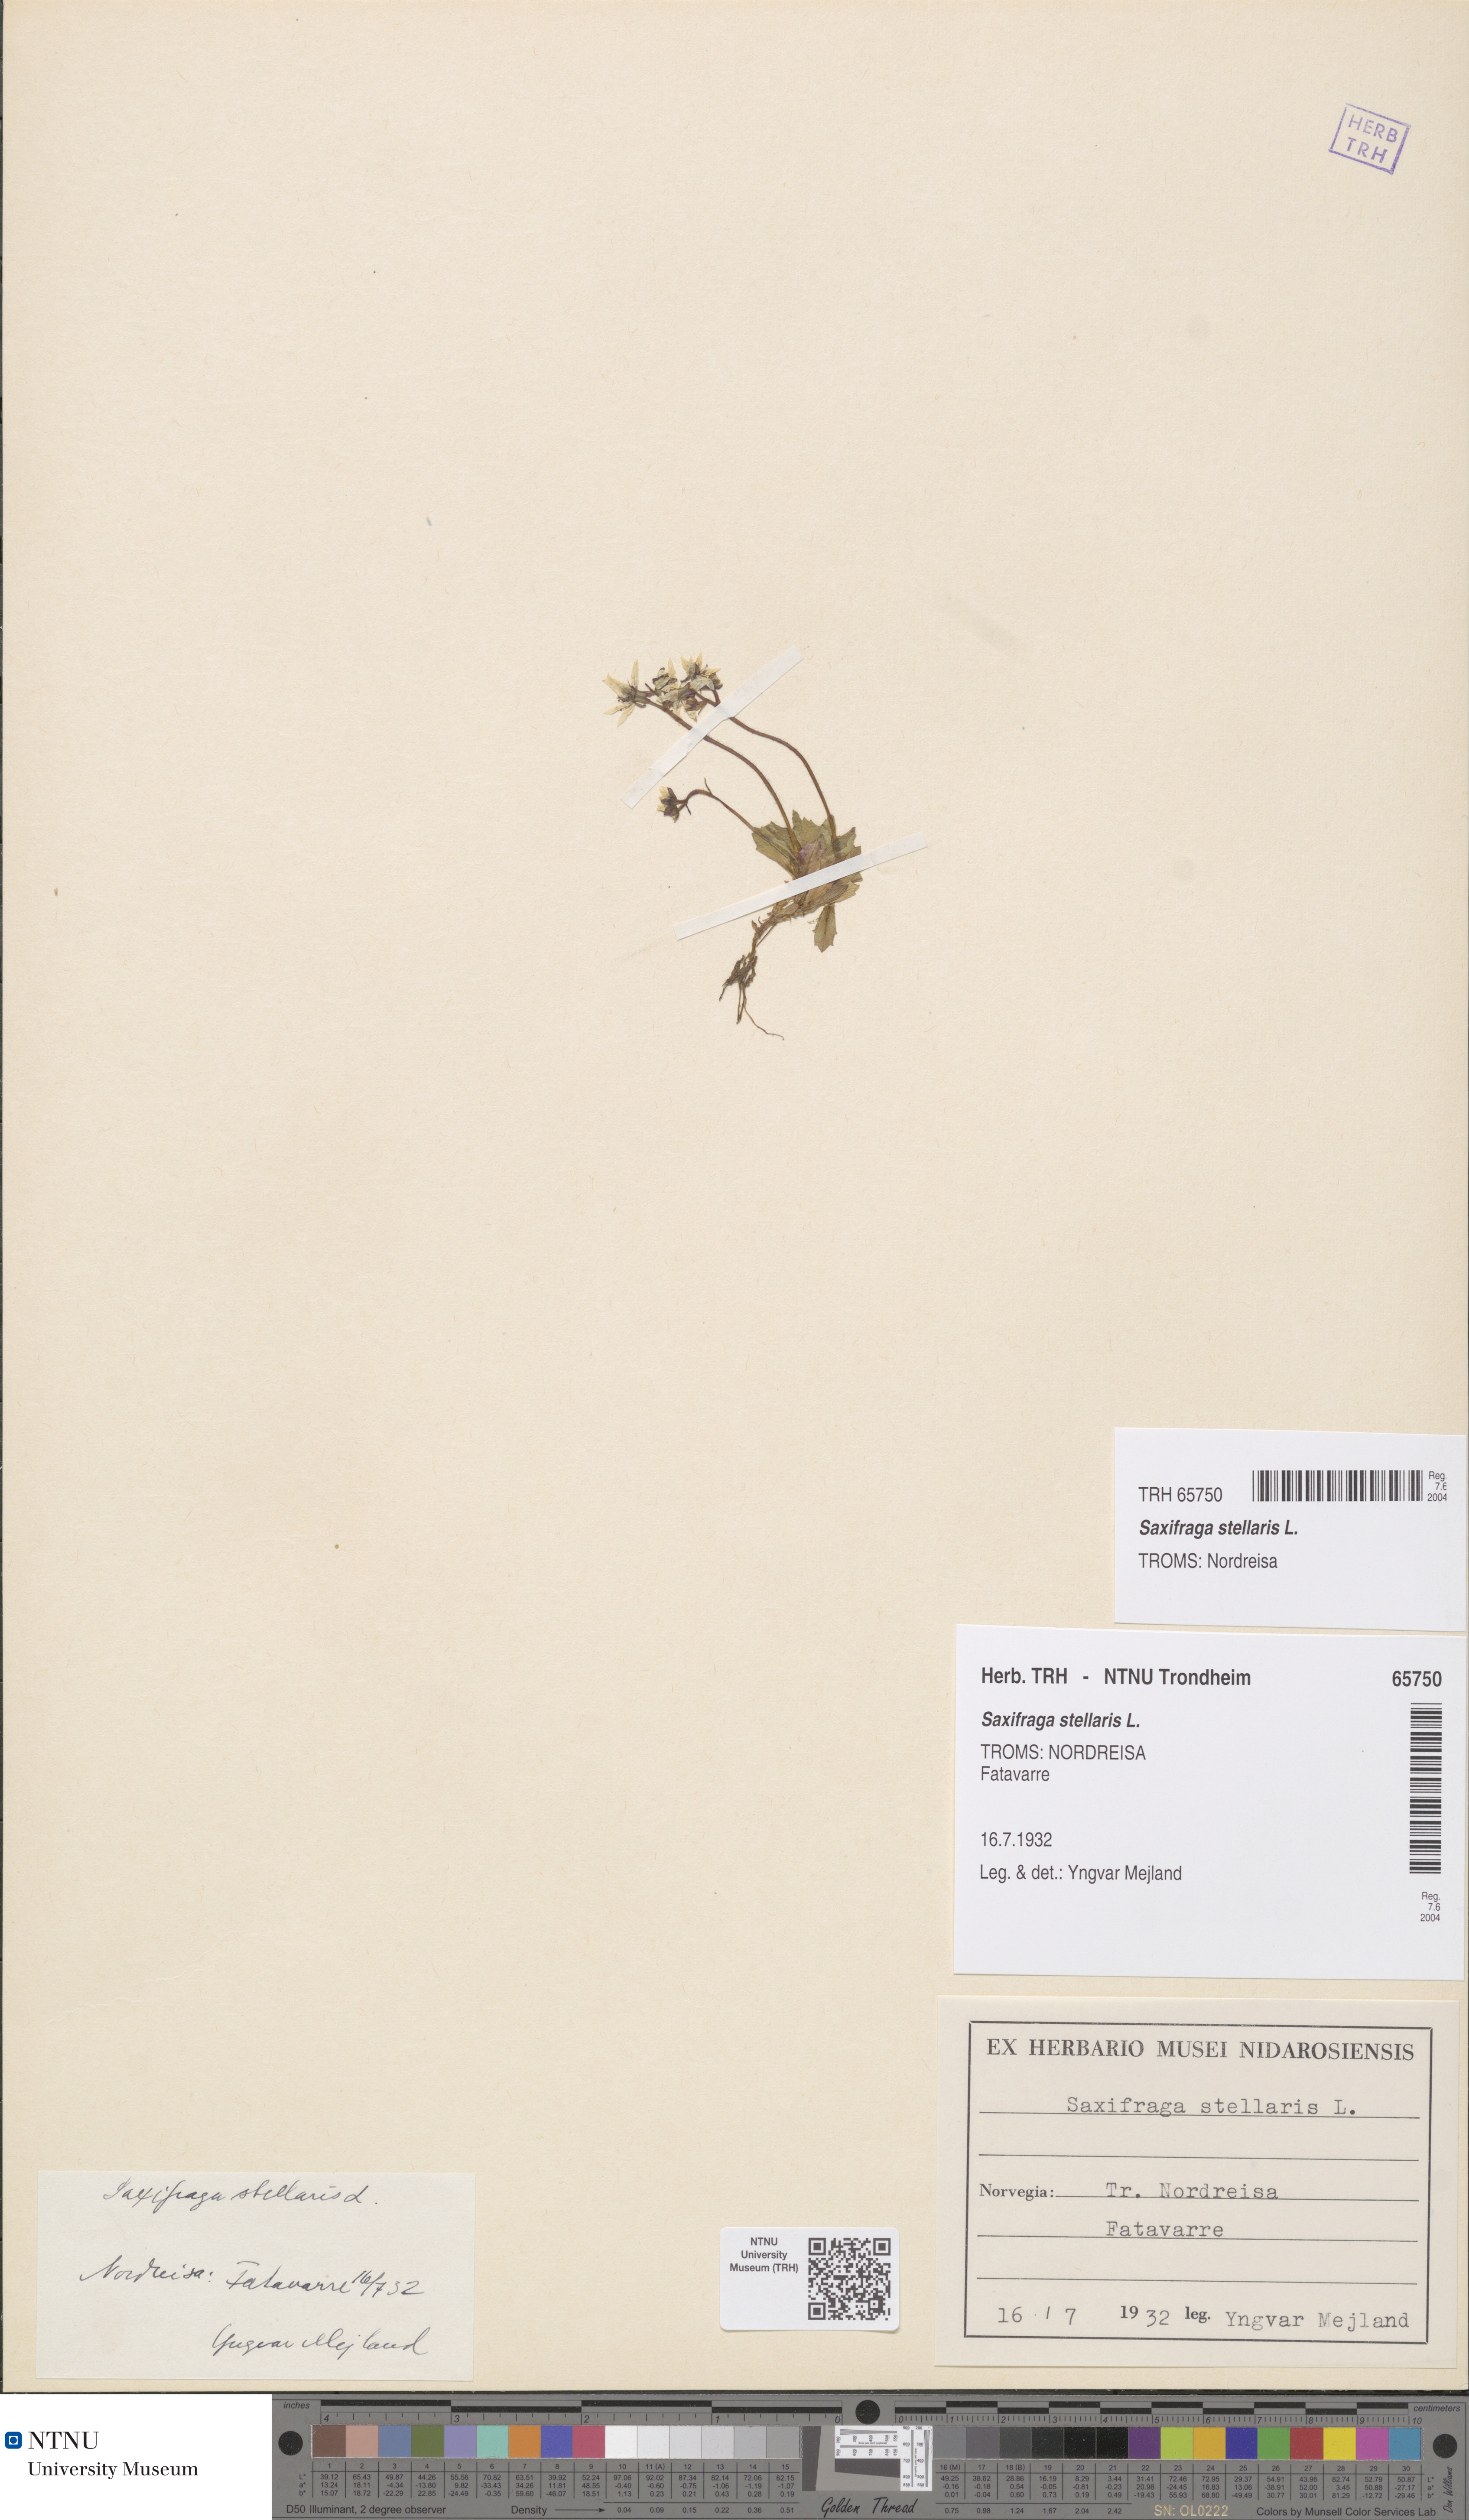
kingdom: Plantae
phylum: Tracheophyta
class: Magnoliopsida
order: Saxifragales
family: Saxifragaceae
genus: Micranthes
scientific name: Micranthes stellaris
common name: Starry saxifrage
